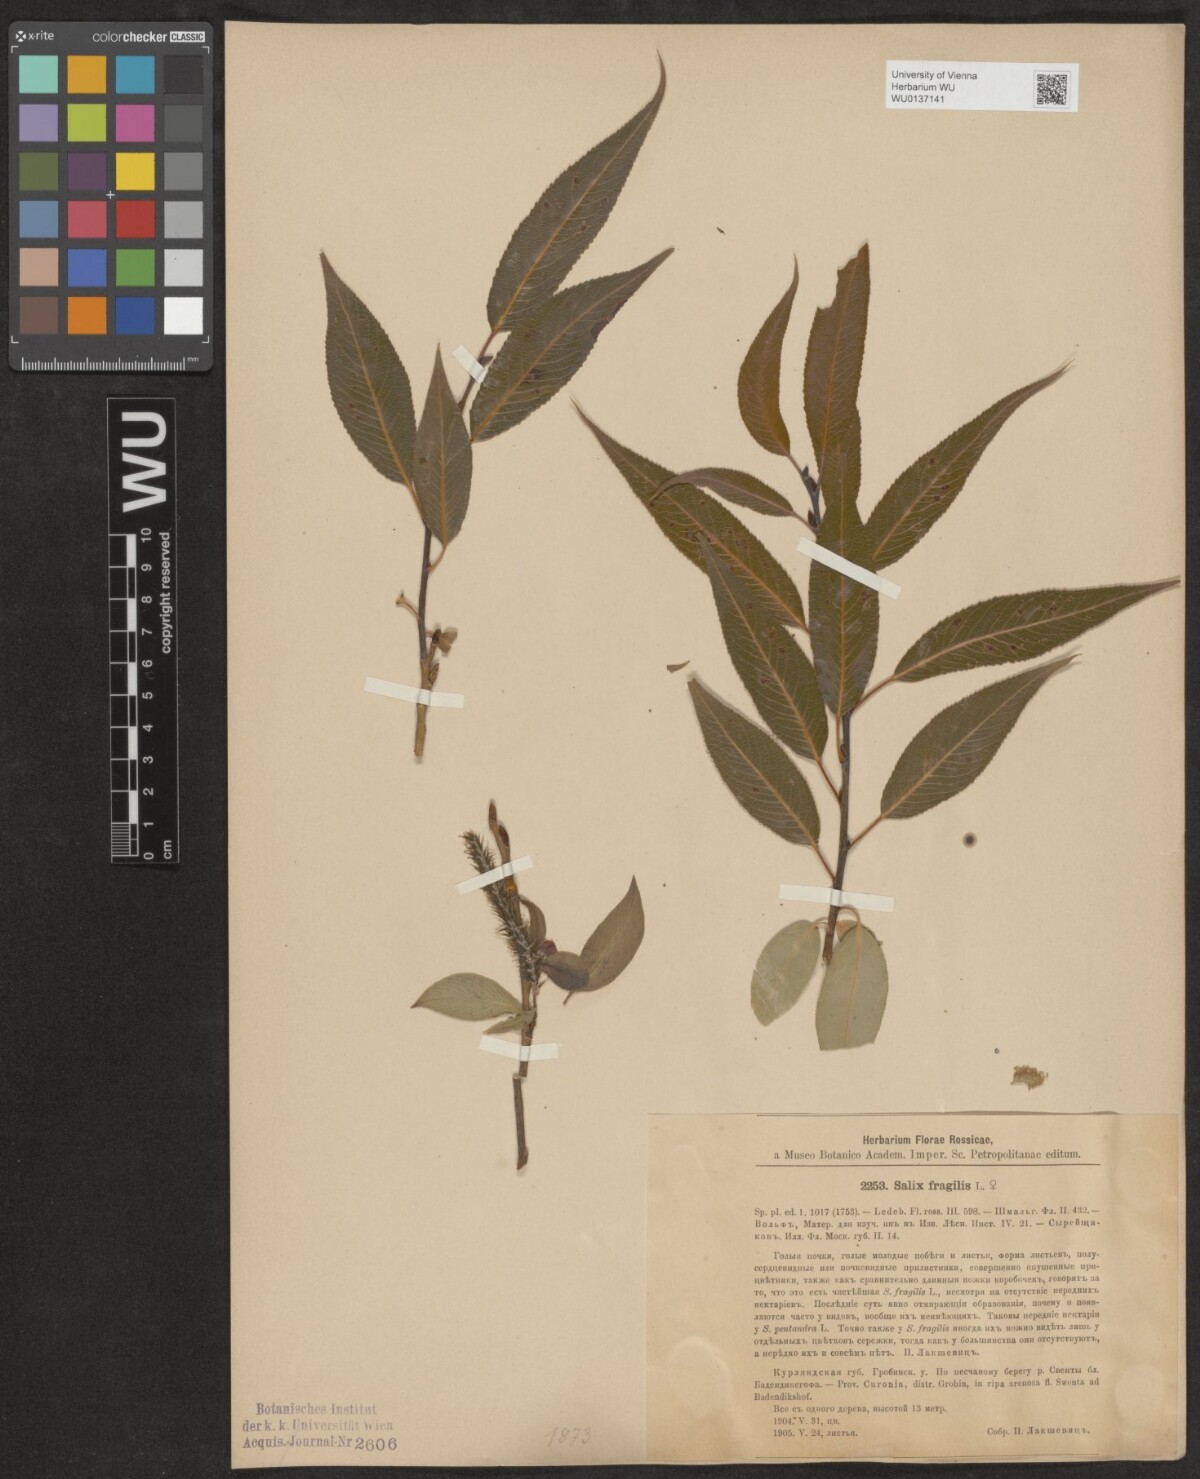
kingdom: Plantae
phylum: Tracheophyta
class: Magnoliopsida
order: Malpighiales
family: Salicaceae
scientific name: Salicaceae
